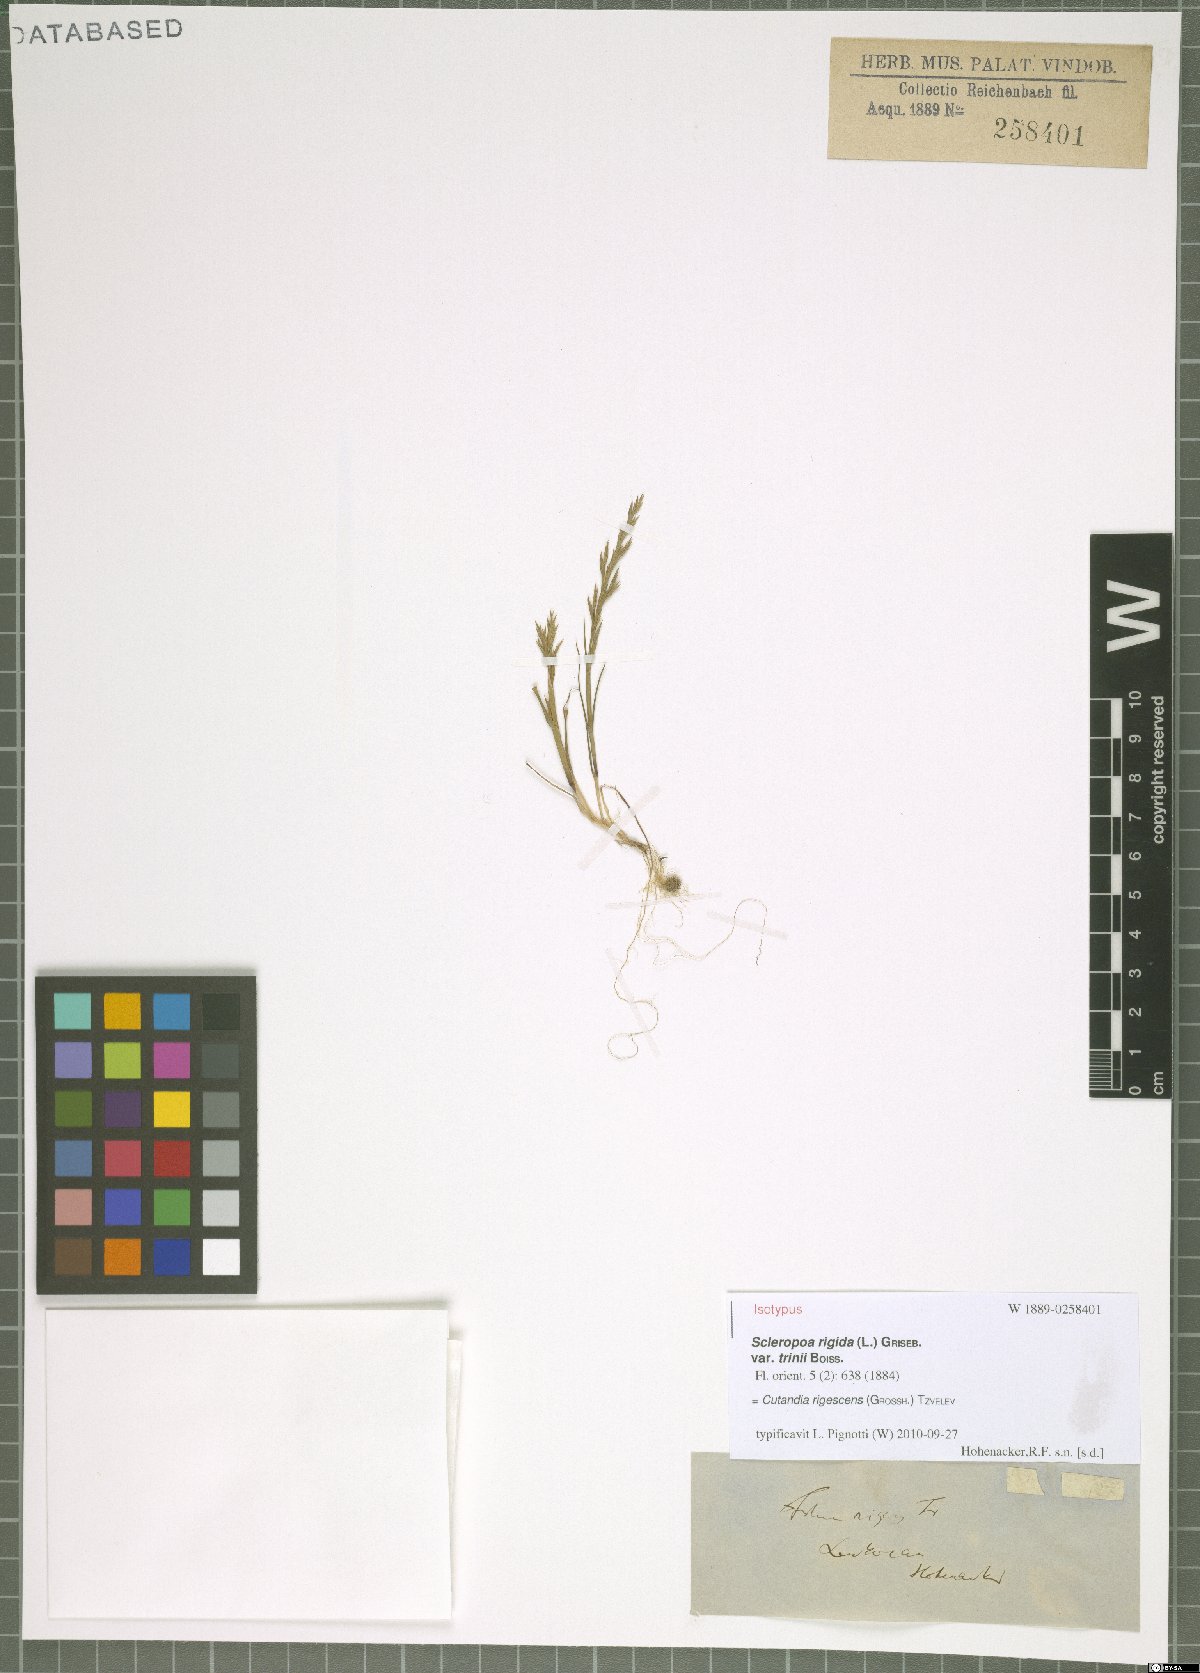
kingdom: Plantae
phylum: Tracheophyta
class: Liliopsida
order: Poales
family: Poaceae
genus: Cutandia
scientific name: Cutandia rigescens
